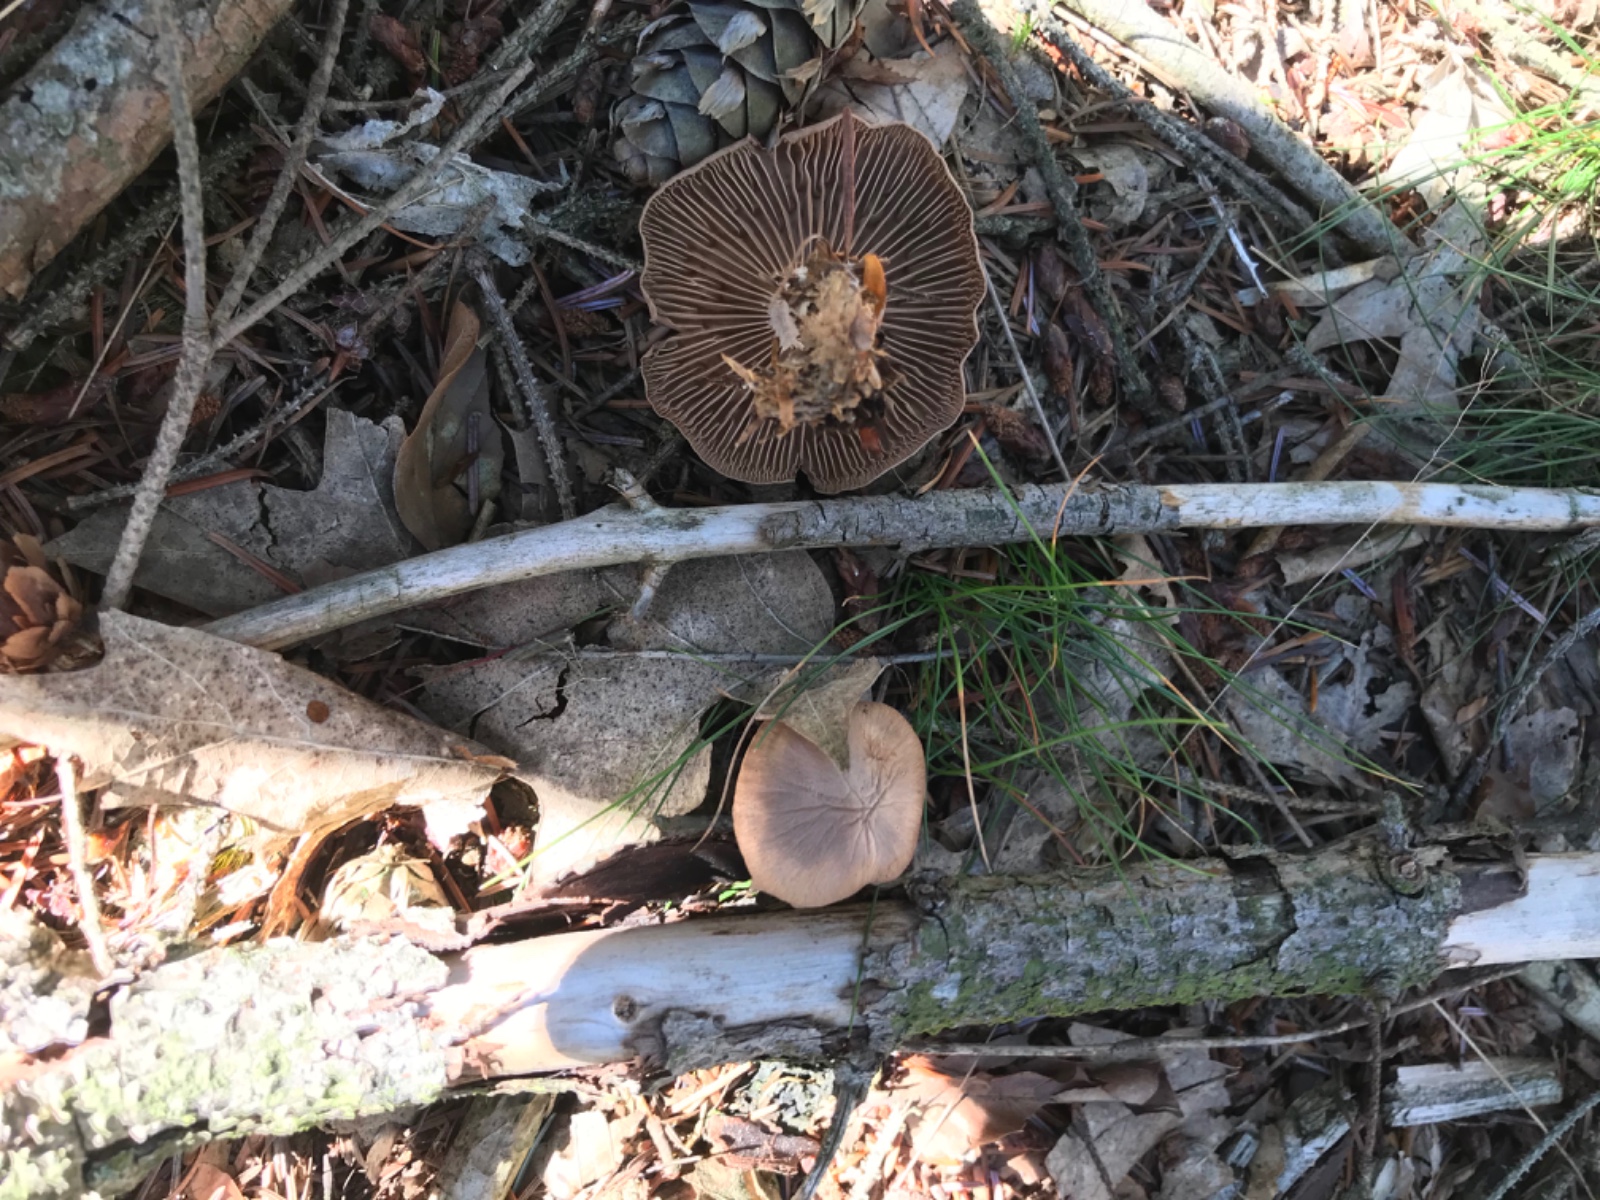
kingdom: Fungi
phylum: Basidiomycota
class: Agaricomycetes
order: Agaricales
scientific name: Agaricales
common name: champignonordenen
